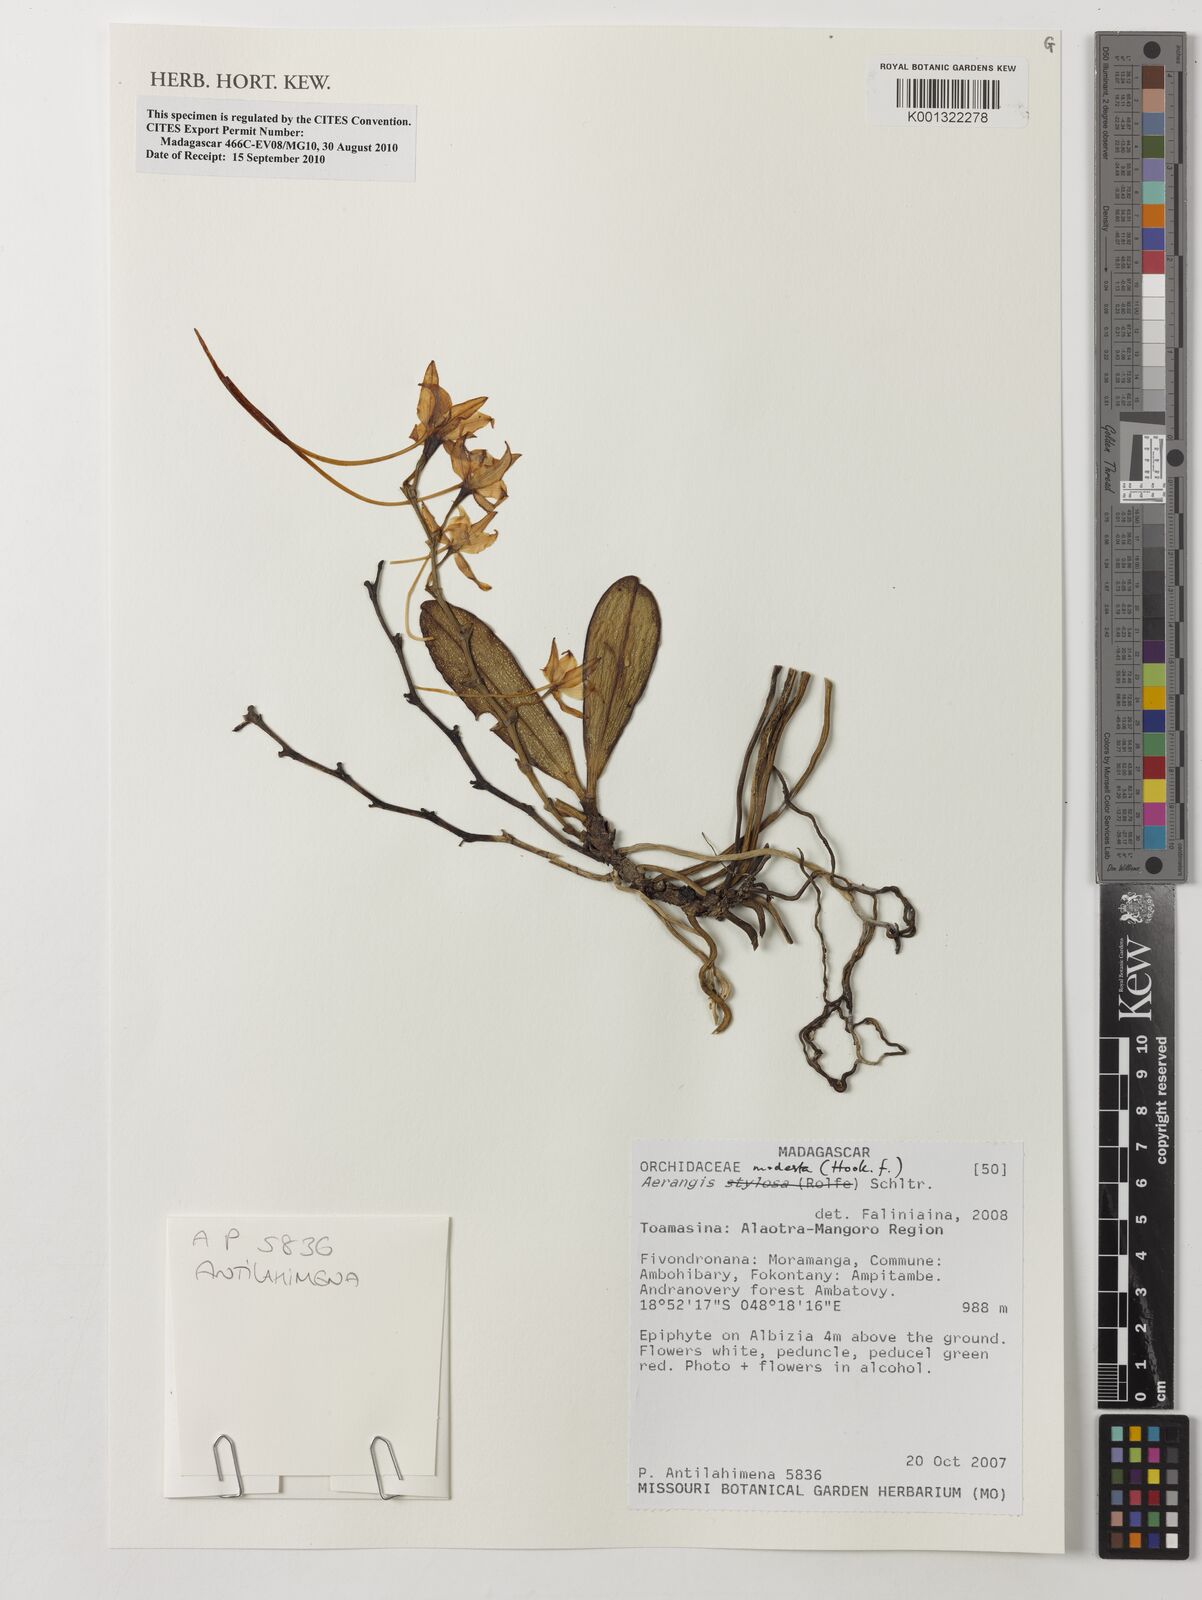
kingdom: Plantae
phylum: Tracheophyta
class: Liliopsida
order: Asparagales
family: Orchidaceae
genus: Aerangis
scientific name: Aerangis modesta
